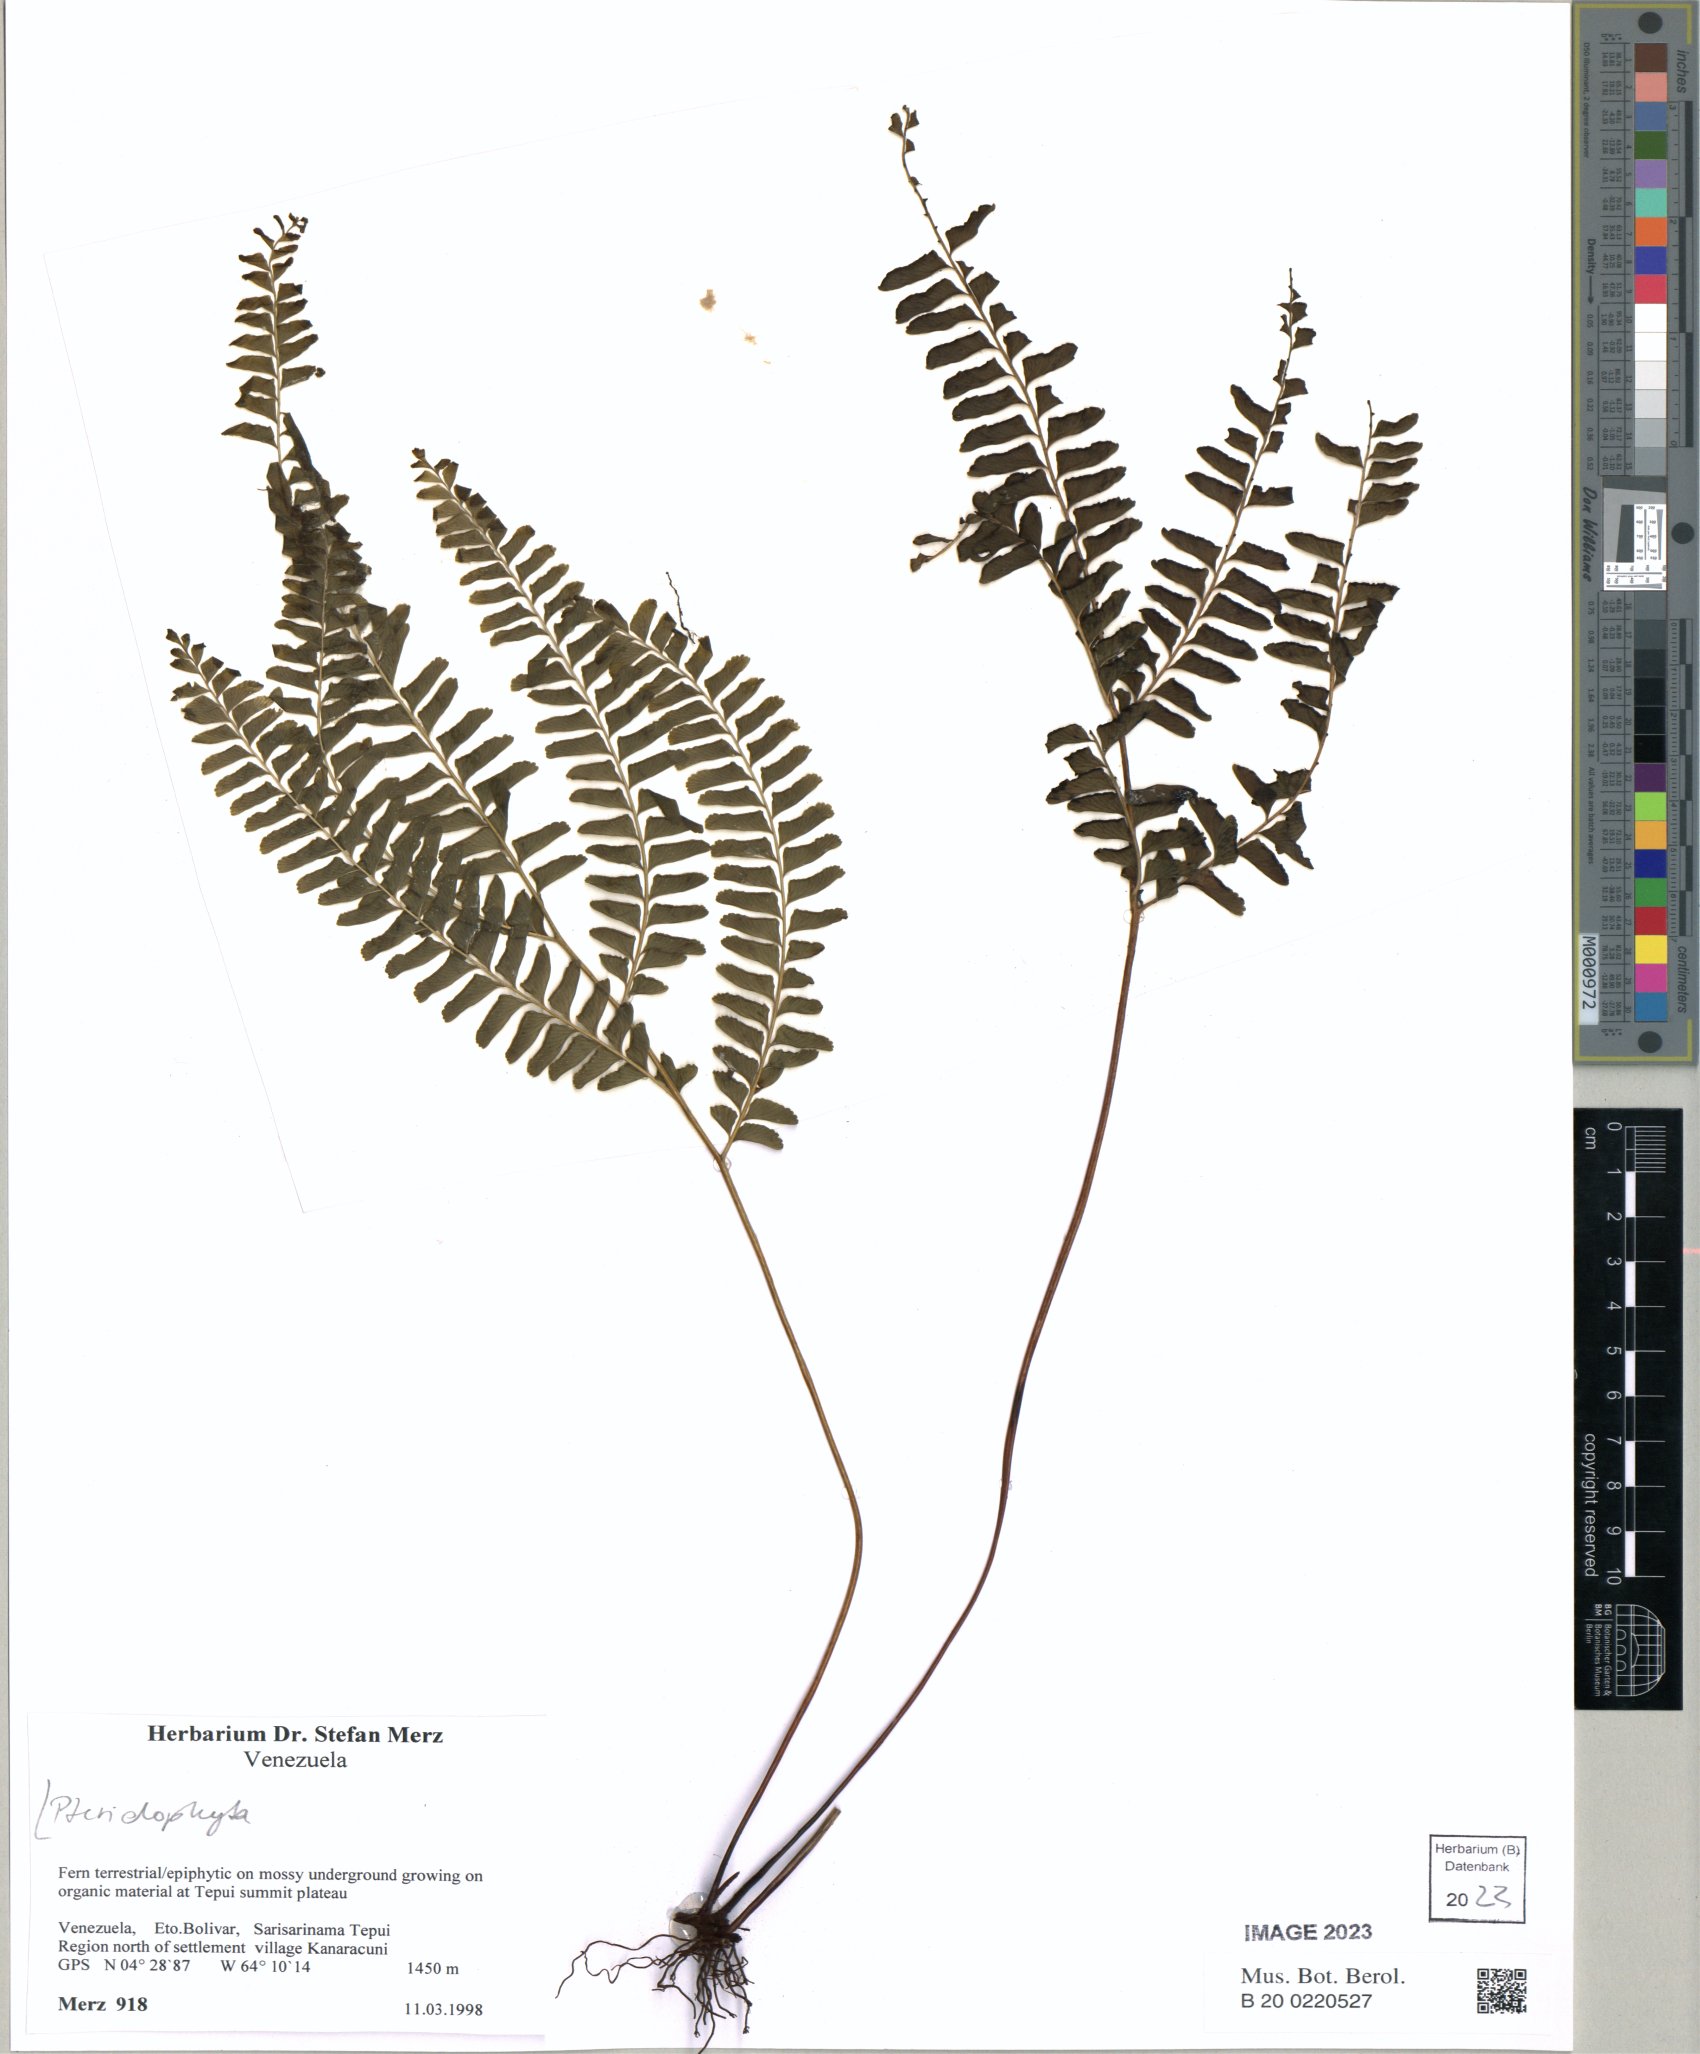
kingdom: Plantae
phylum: Tracheophyta
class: Polypodiopsida
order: Polypodiales
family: Lindsaeaceae
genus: Lindsaea
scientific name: Lindsaea
